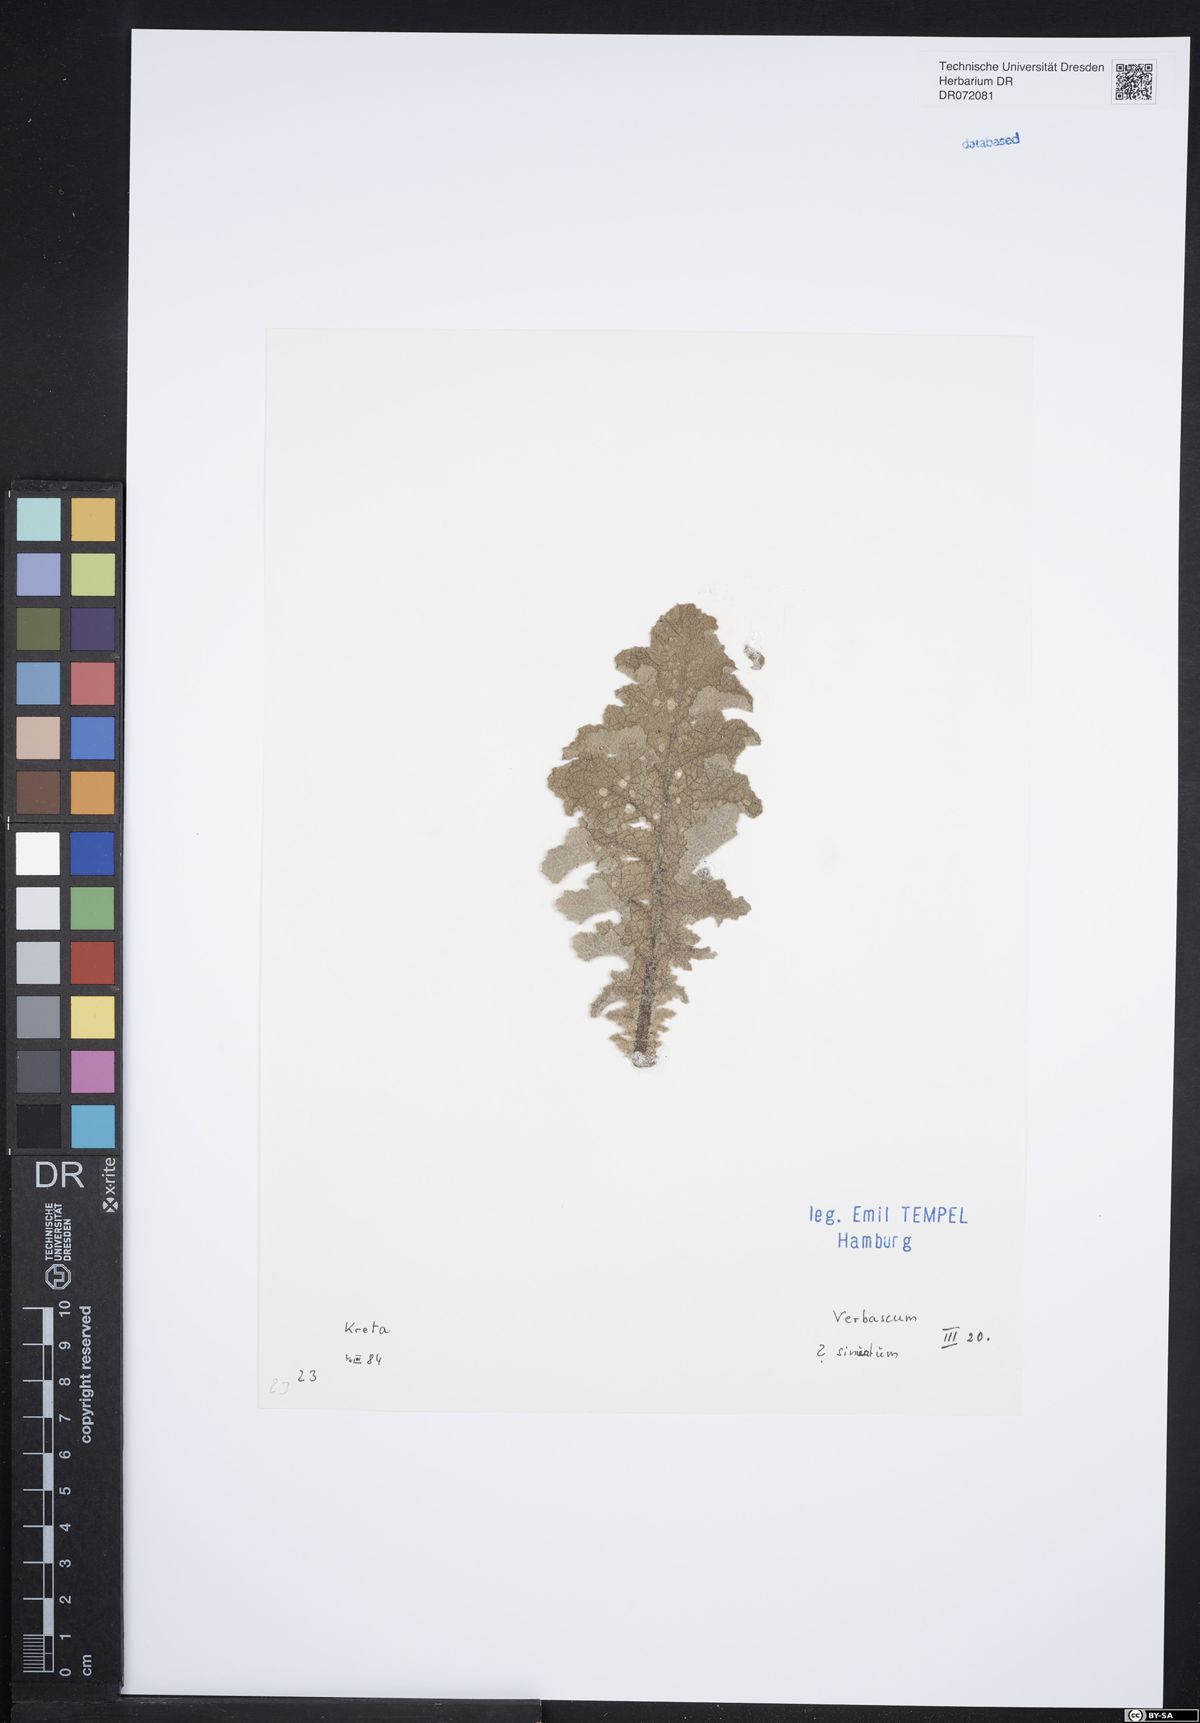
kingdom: Plantae
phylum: Tracheophyta
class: Magnoliopsida
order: Lamiales
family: Scrophulariaceae
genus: Verbascum
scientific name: Verbascum sinuatum
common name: Wavyleaf mullein
